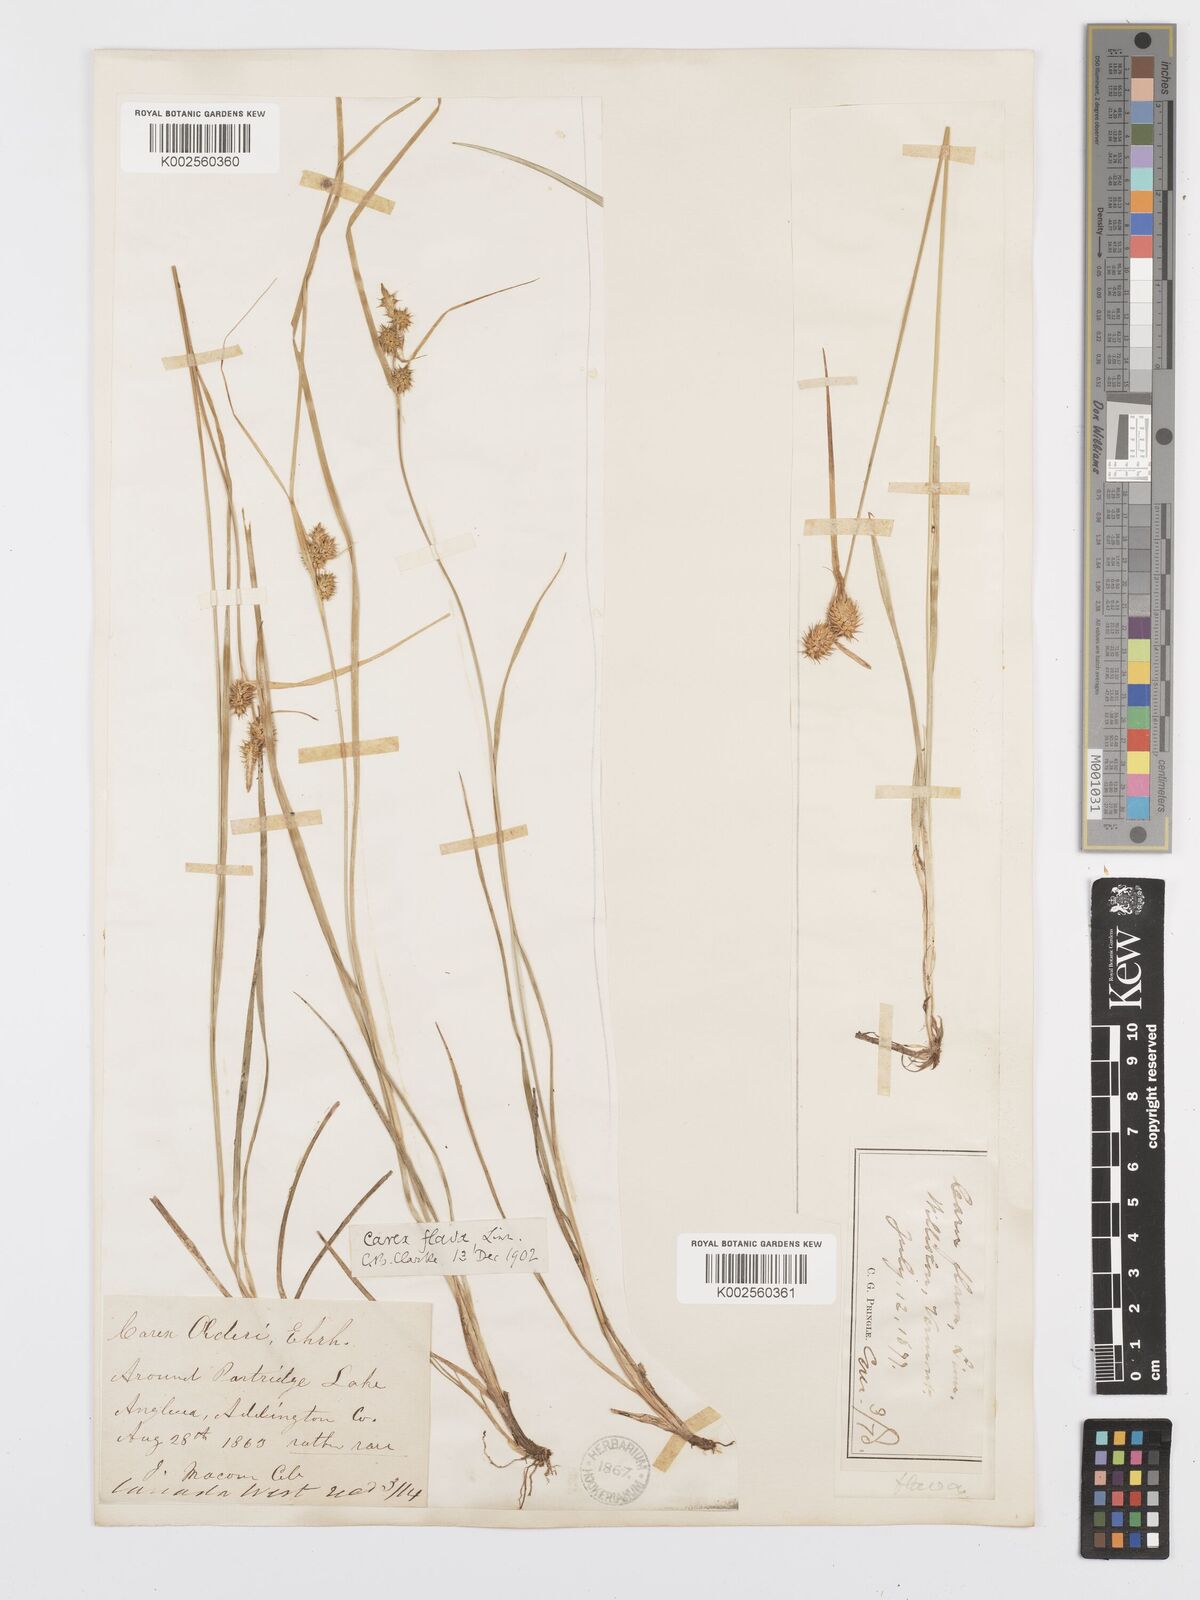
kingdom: Plantae
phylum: Tracheophyta
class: Liliopsida
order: Poales
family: Cyperaceae
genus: Carex
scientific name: Carex lepidocarpa
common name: Long-stalked yellow-sedge
